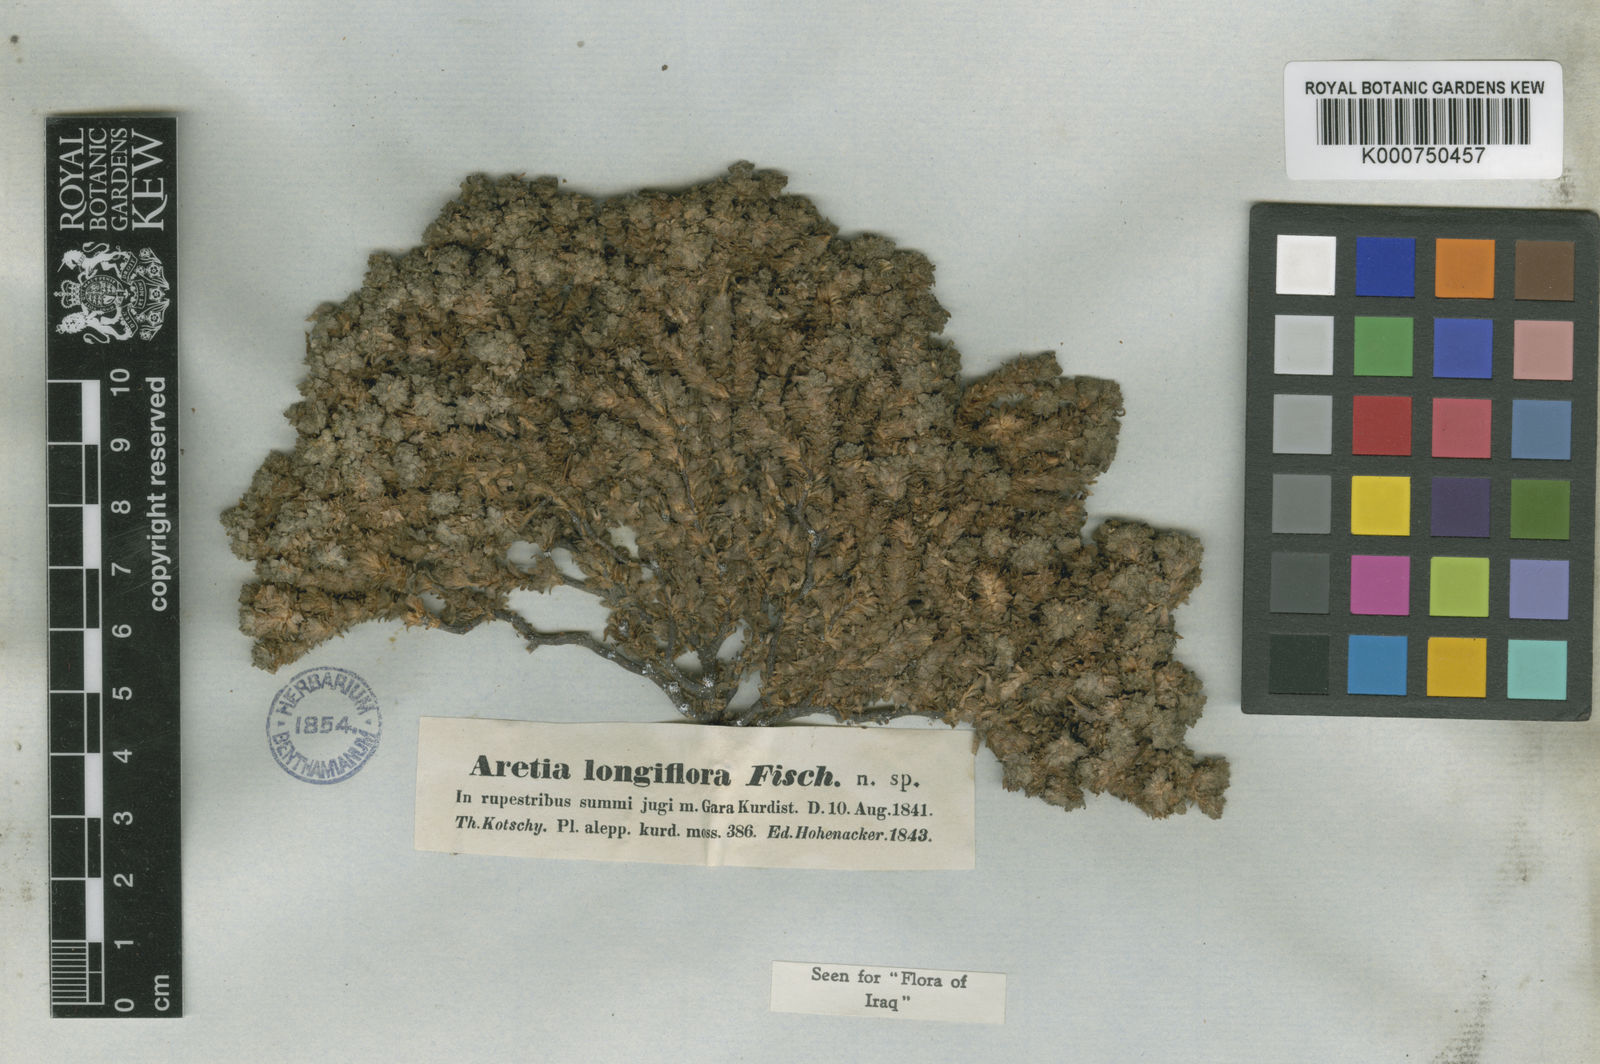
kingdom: Plantae
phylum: Tracheophyta
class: Magnoliopsida
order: Ericales
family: Primulaceae
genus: Dionysia
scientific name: Dionysia odora
